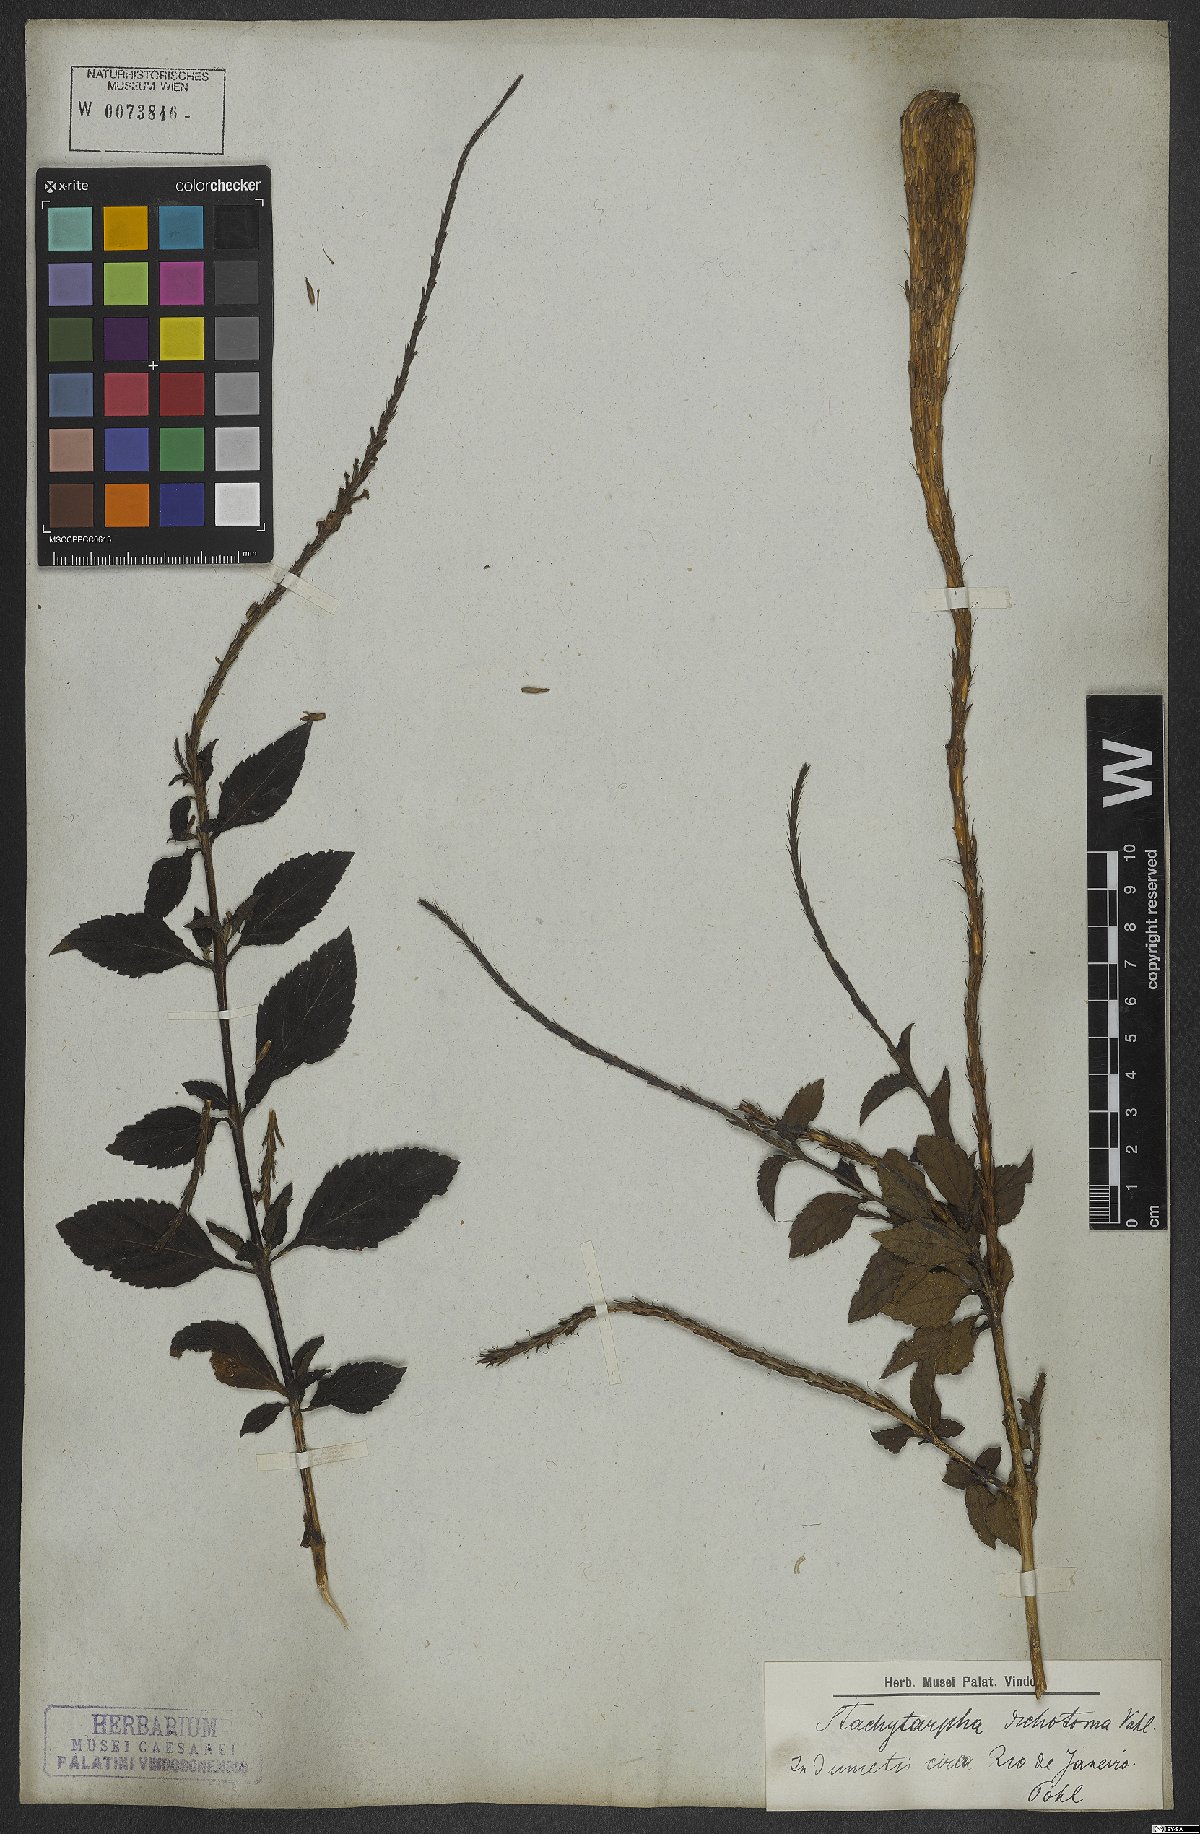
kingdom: Plantae
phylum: Tracheophyta
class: Magnoliopsida
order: Lamiales
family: Verbenaceae
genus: Stachytarpheta
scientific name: Stachytarpheta cayennensis
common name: Cayenne porterweed
